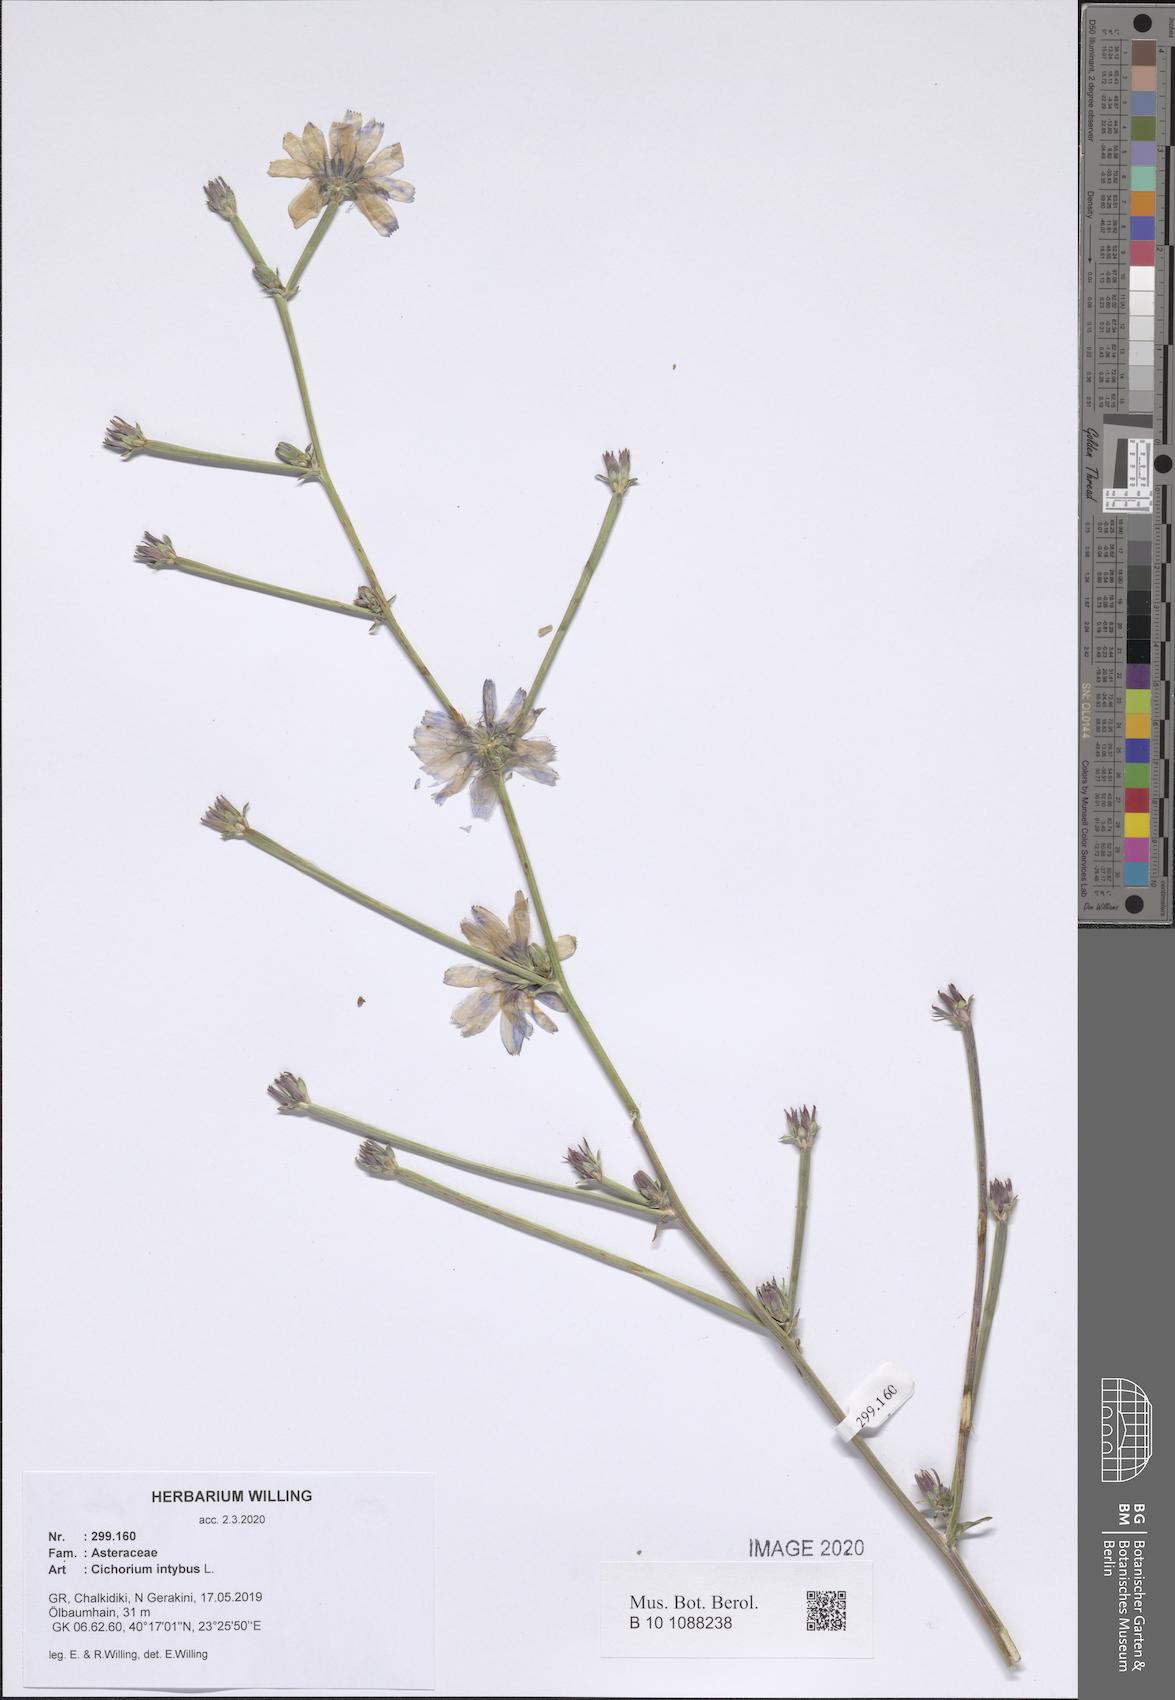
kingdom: Plantae
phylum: Tracheophyta
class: Magnoliopsida
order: Asterales
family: Asteraceae
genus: Cichorium
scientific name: Cichorium intybus
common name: Chicory
